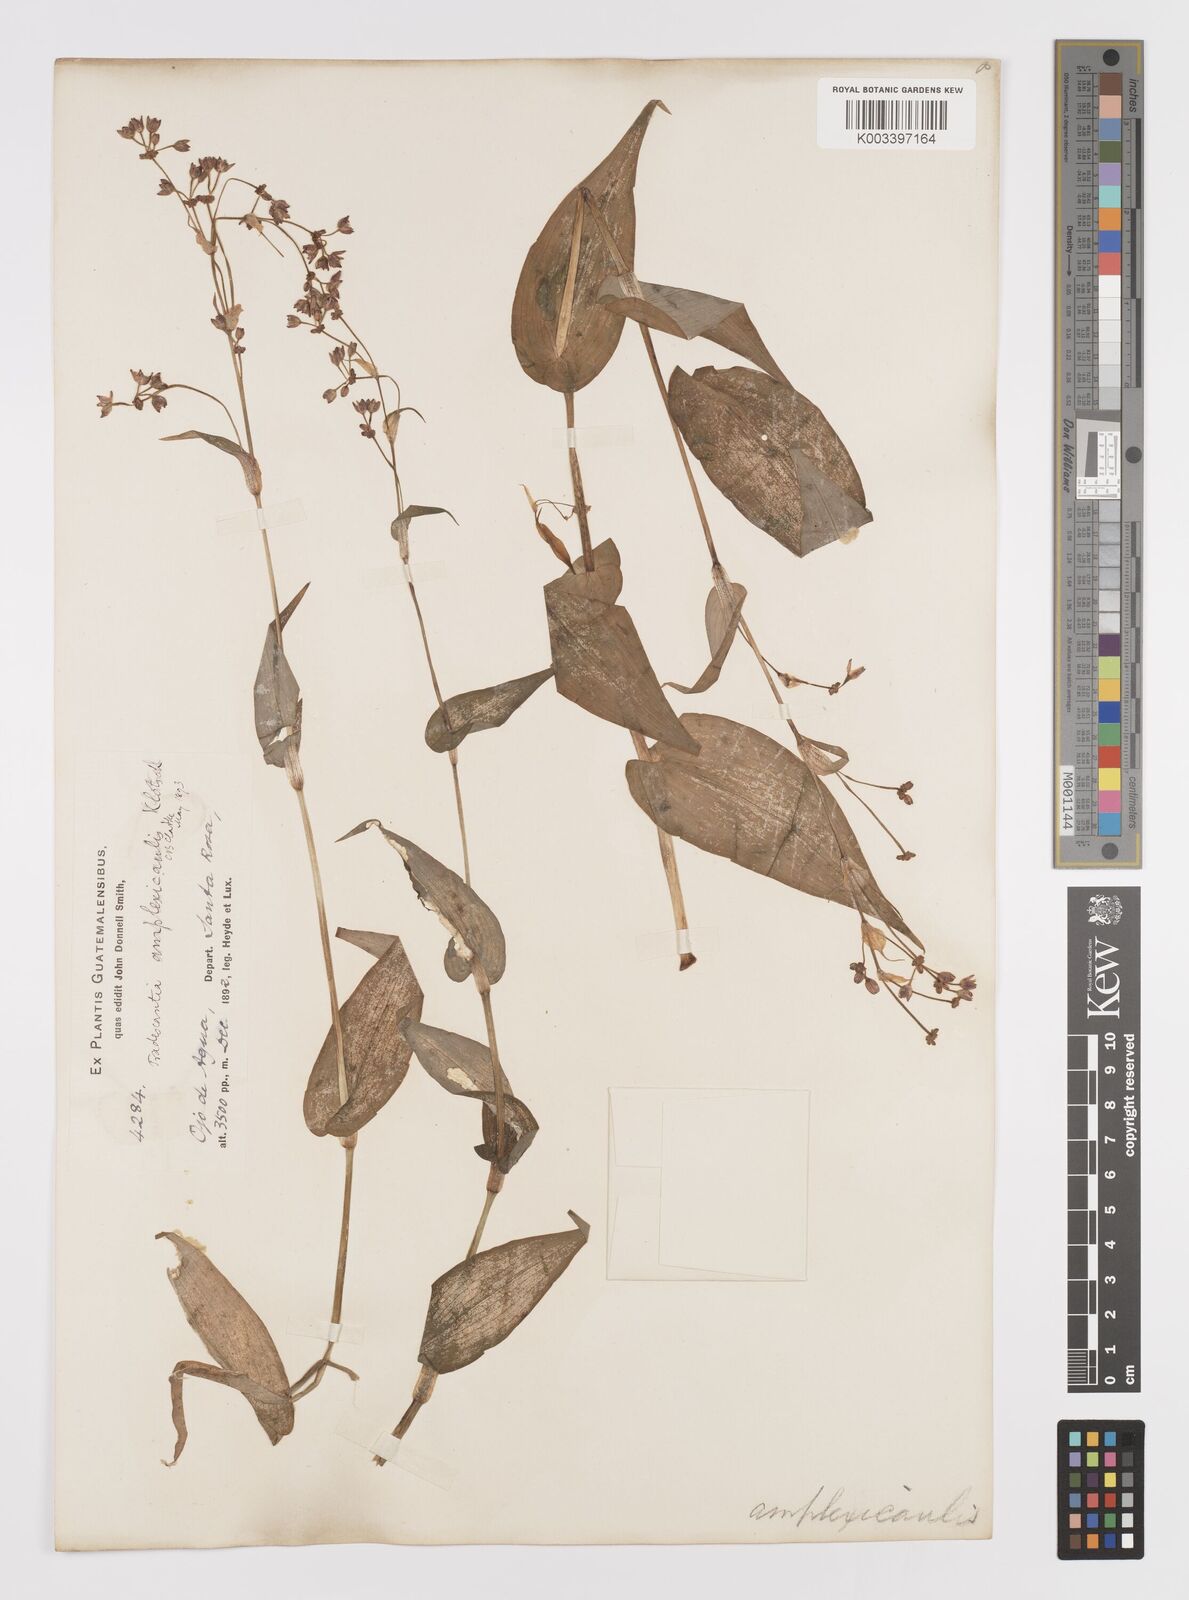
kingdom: Plantae
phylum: Tracheophyta
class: Liliopsida
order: Commelinales
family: Commelinaceae
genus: Callisia
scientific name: Callisia amplexicaulis
